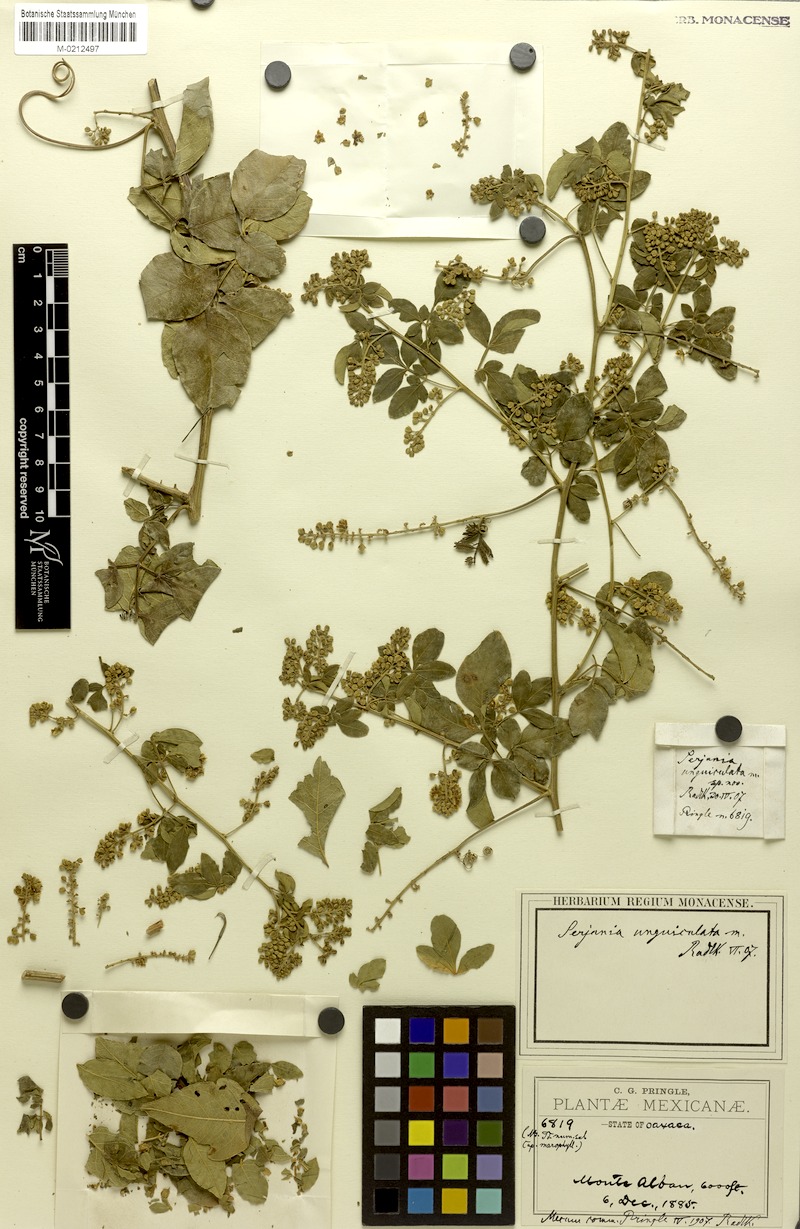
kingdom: Plantae
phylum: Tracheophyta
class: Magnoliopsida
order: Sapindales
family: Sapindaceae
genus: Serjania
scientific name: Serjania unguiculata
